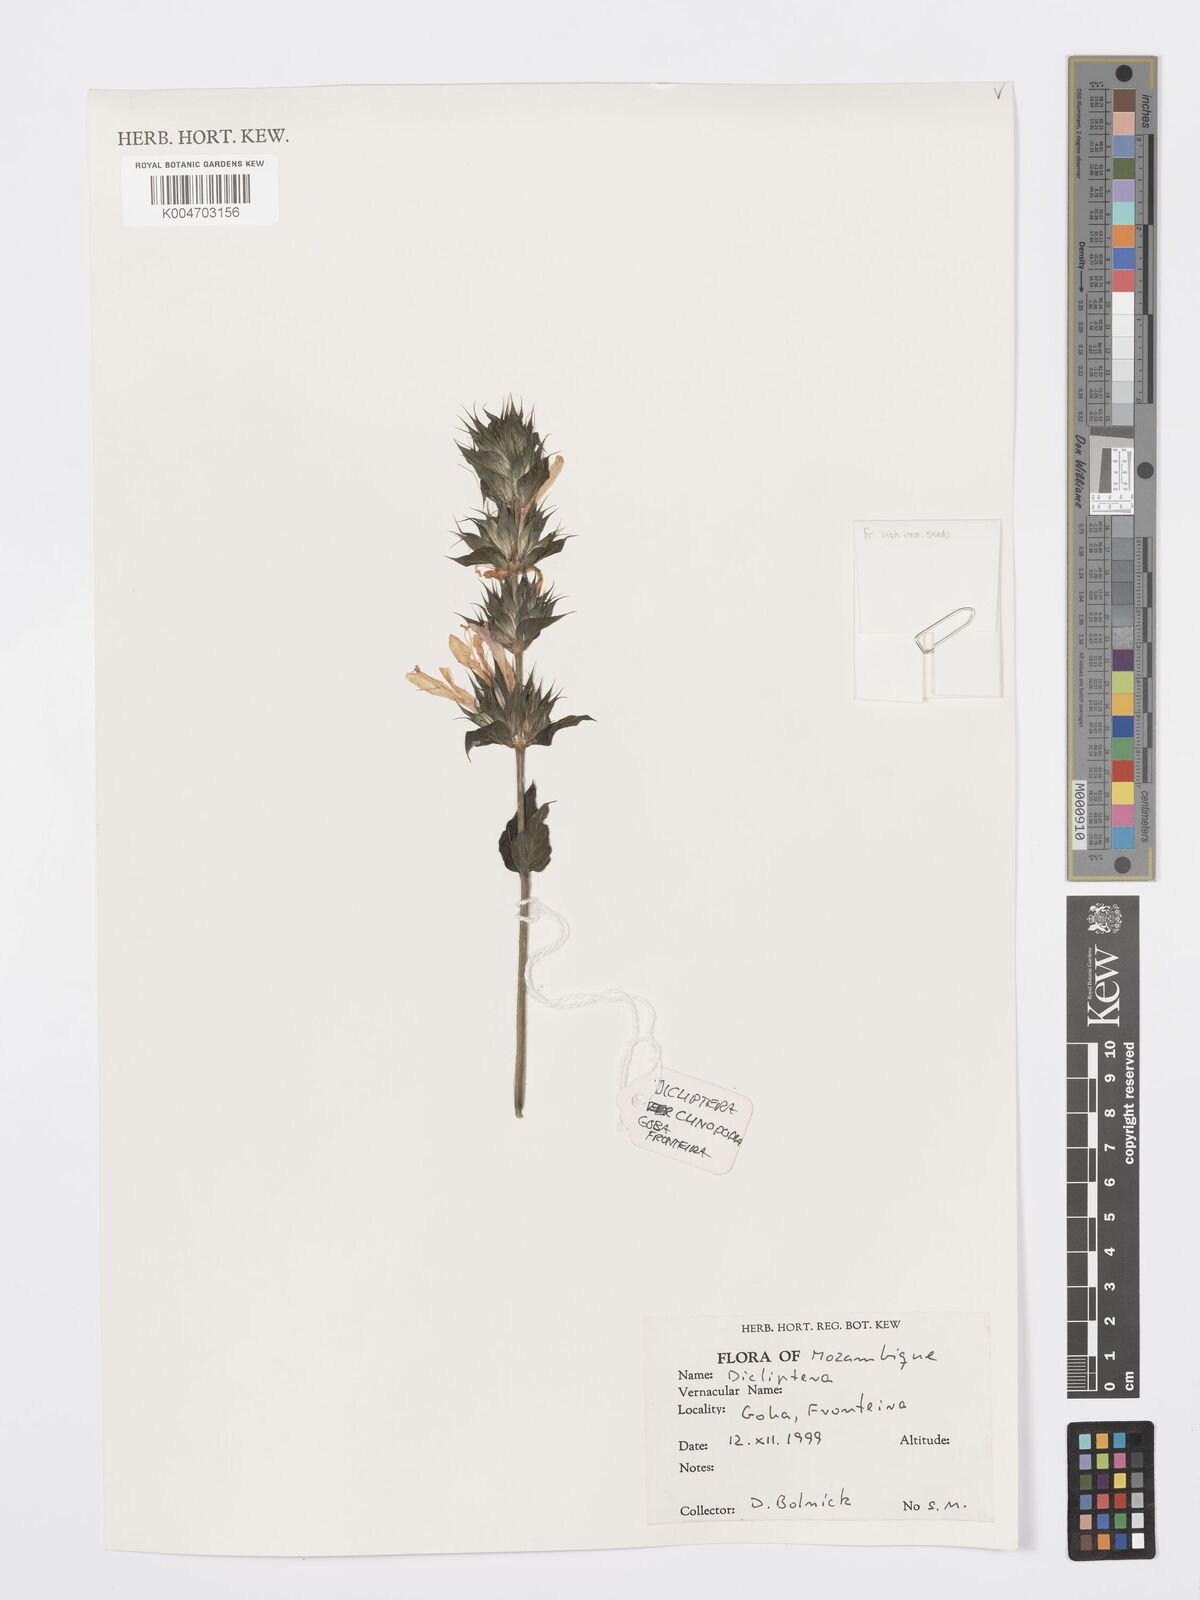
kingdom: Plantae
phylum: Tracheophyta
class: Magnoliopsida
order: Lamiales
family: Acanthaceae
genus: Dicliptera
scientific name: Dicliptera clinopodia
